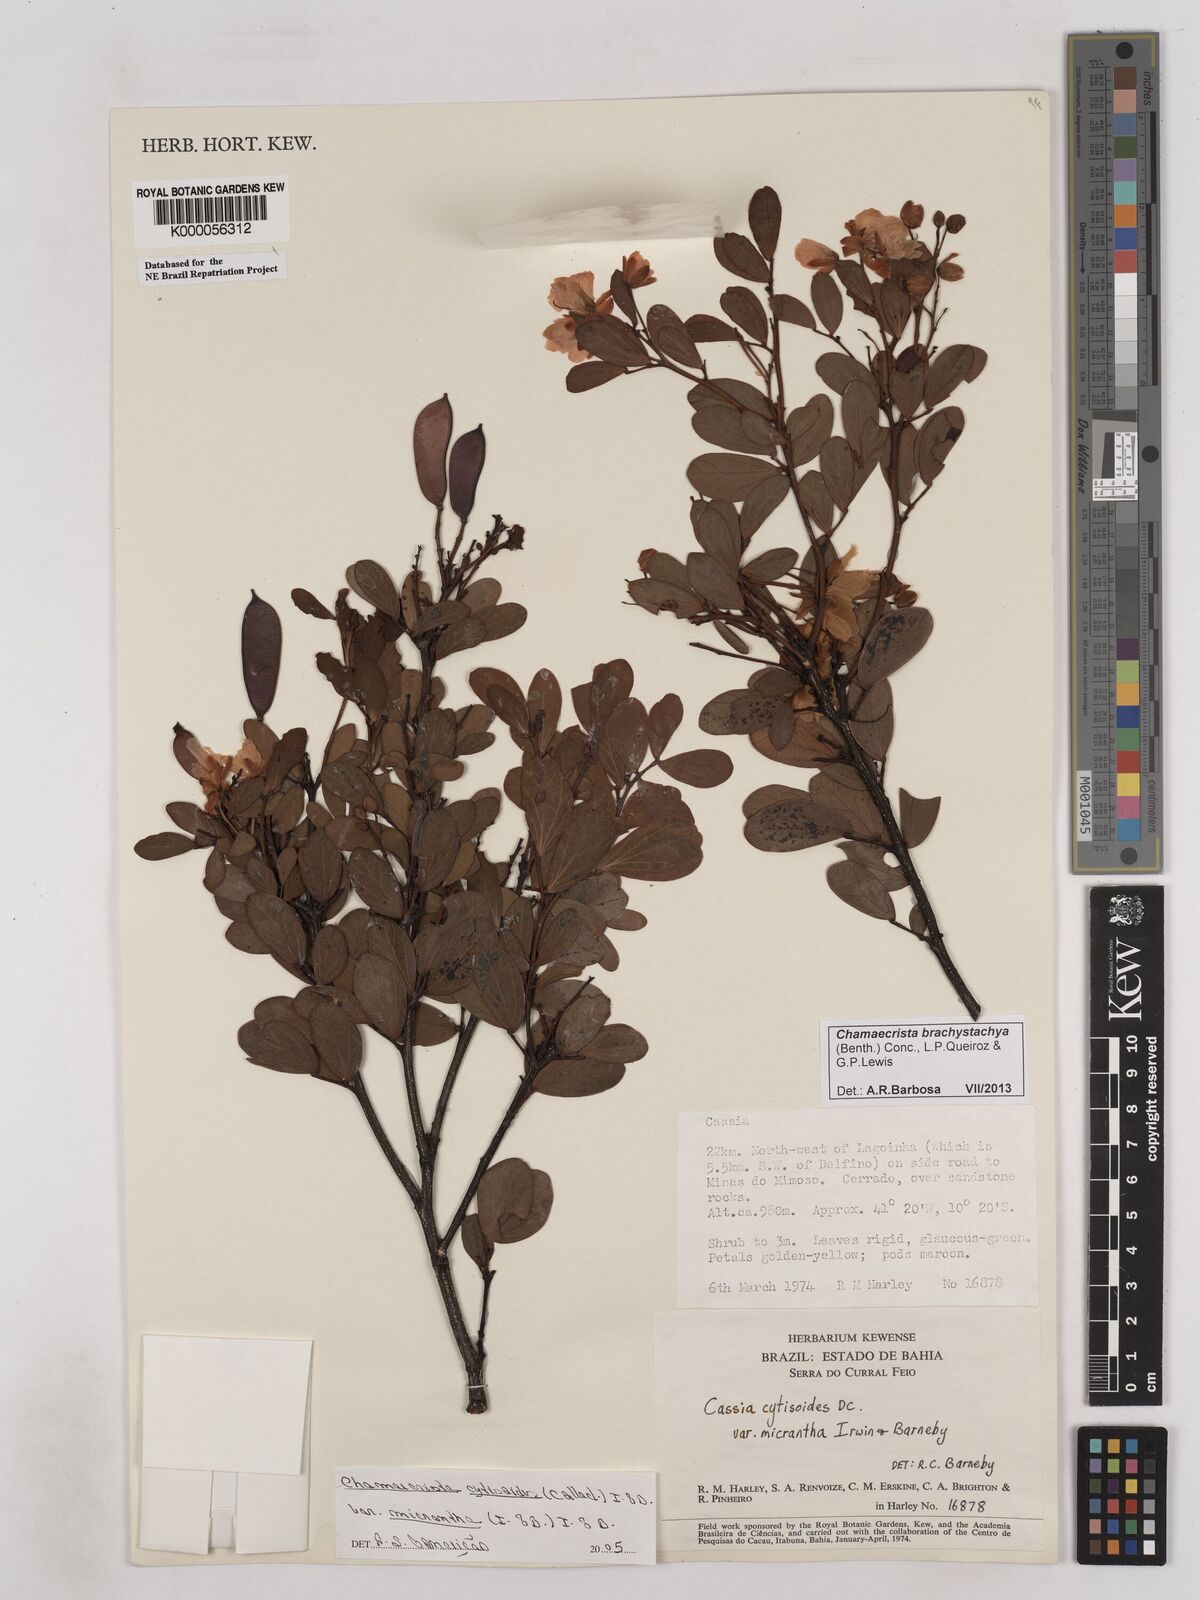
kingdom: Plantae
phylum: Tracheophyta
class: Magnoliopsida
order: Fabales
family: Fabaceae
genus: Chamaecrista
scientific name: Chamaecrista cytisoides
